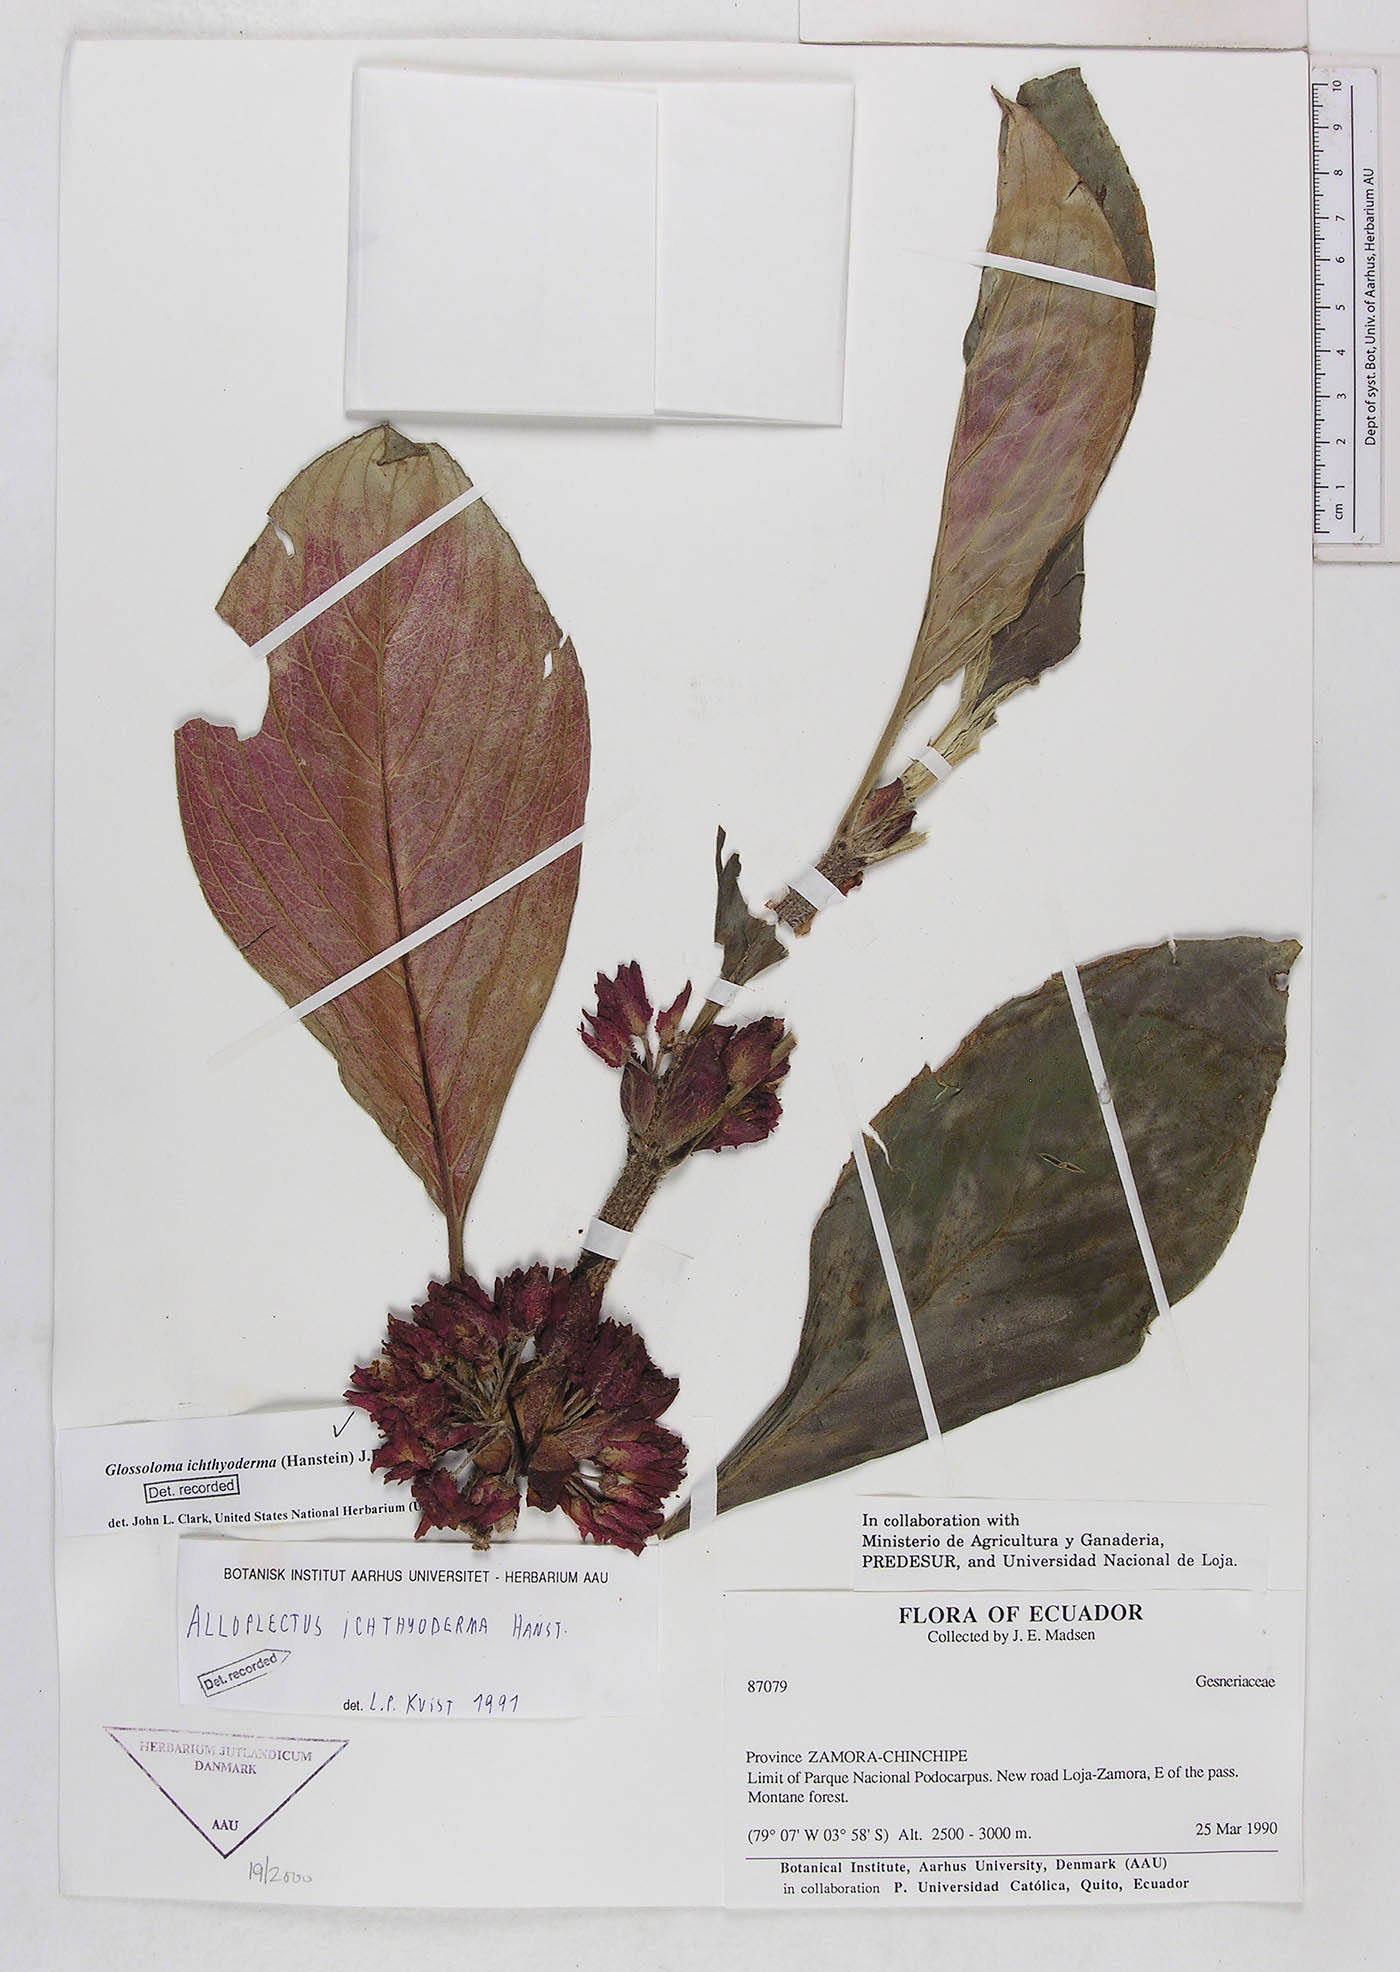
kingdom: Plantae
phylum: Tracheophyta
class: Magnoliopsida
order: Lamiales
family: Gesneriaceae
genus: Glossoloma
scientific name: Glossoloma ichthyoderma
